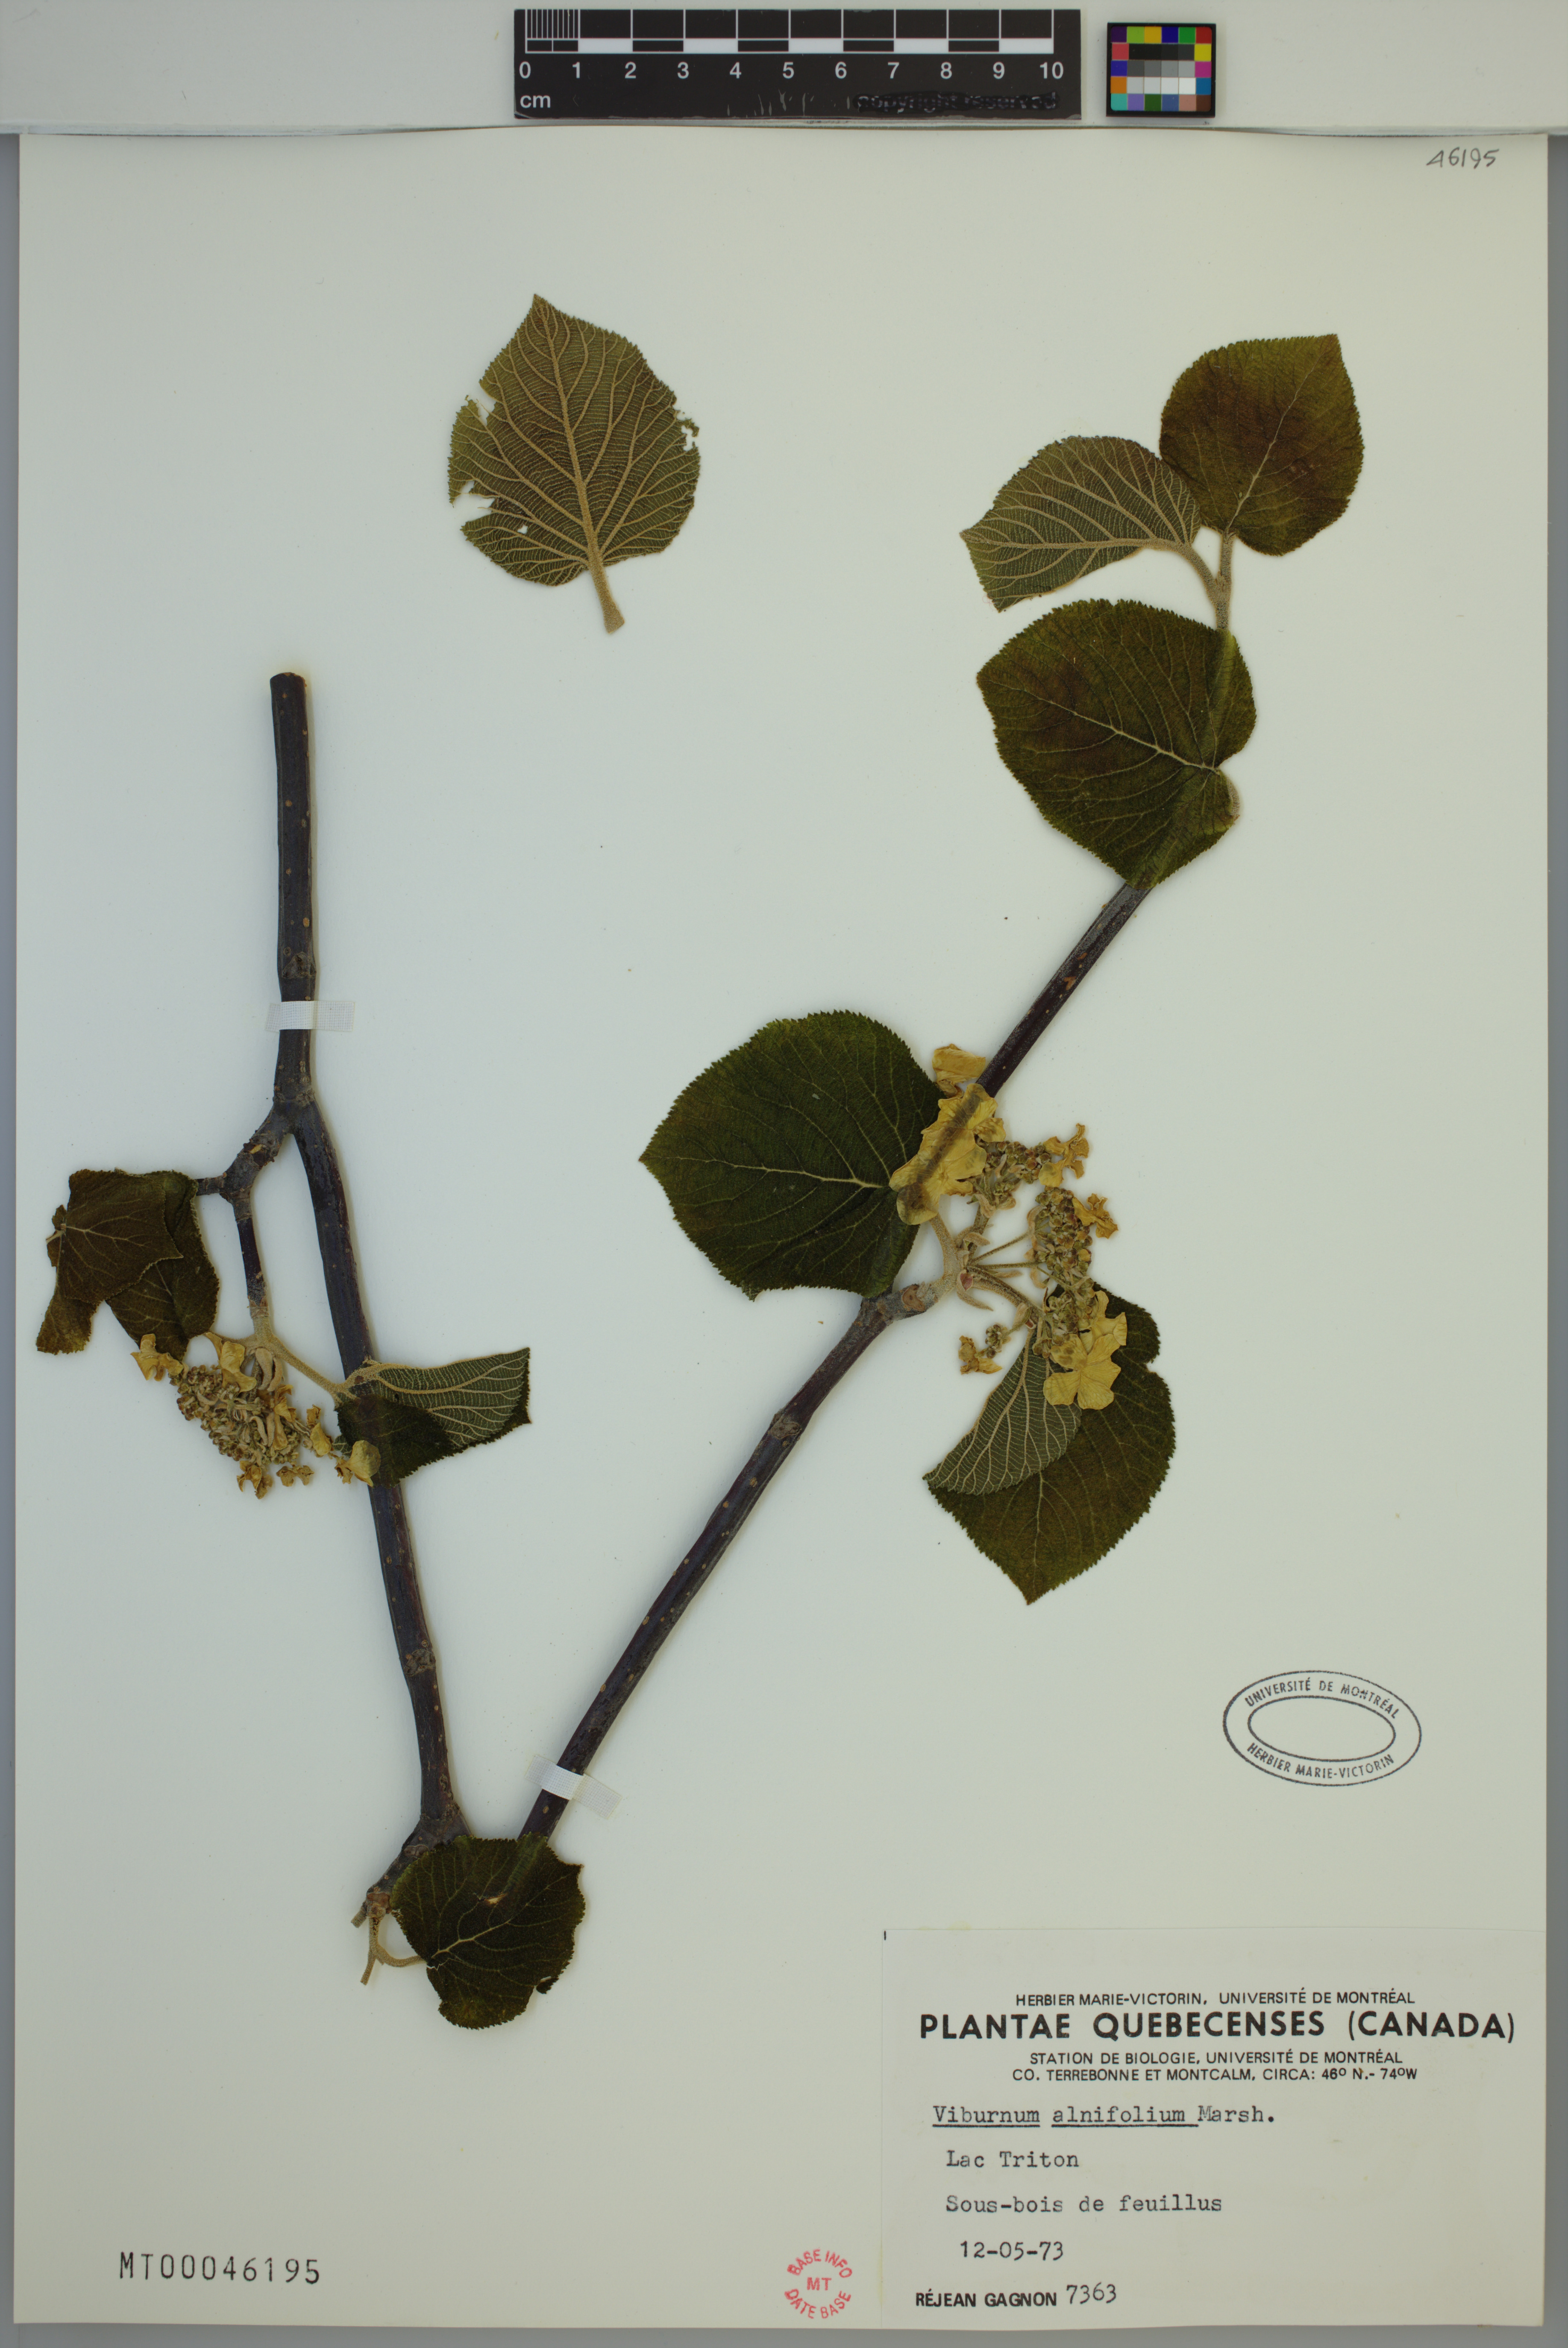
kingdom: Plantae
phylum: Tracheophyta
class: Magnoliopsida
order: Dipsacales
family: Viburnaceae
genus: Viburnum
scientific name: Viburnum lantanoides
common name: Hobblebush
